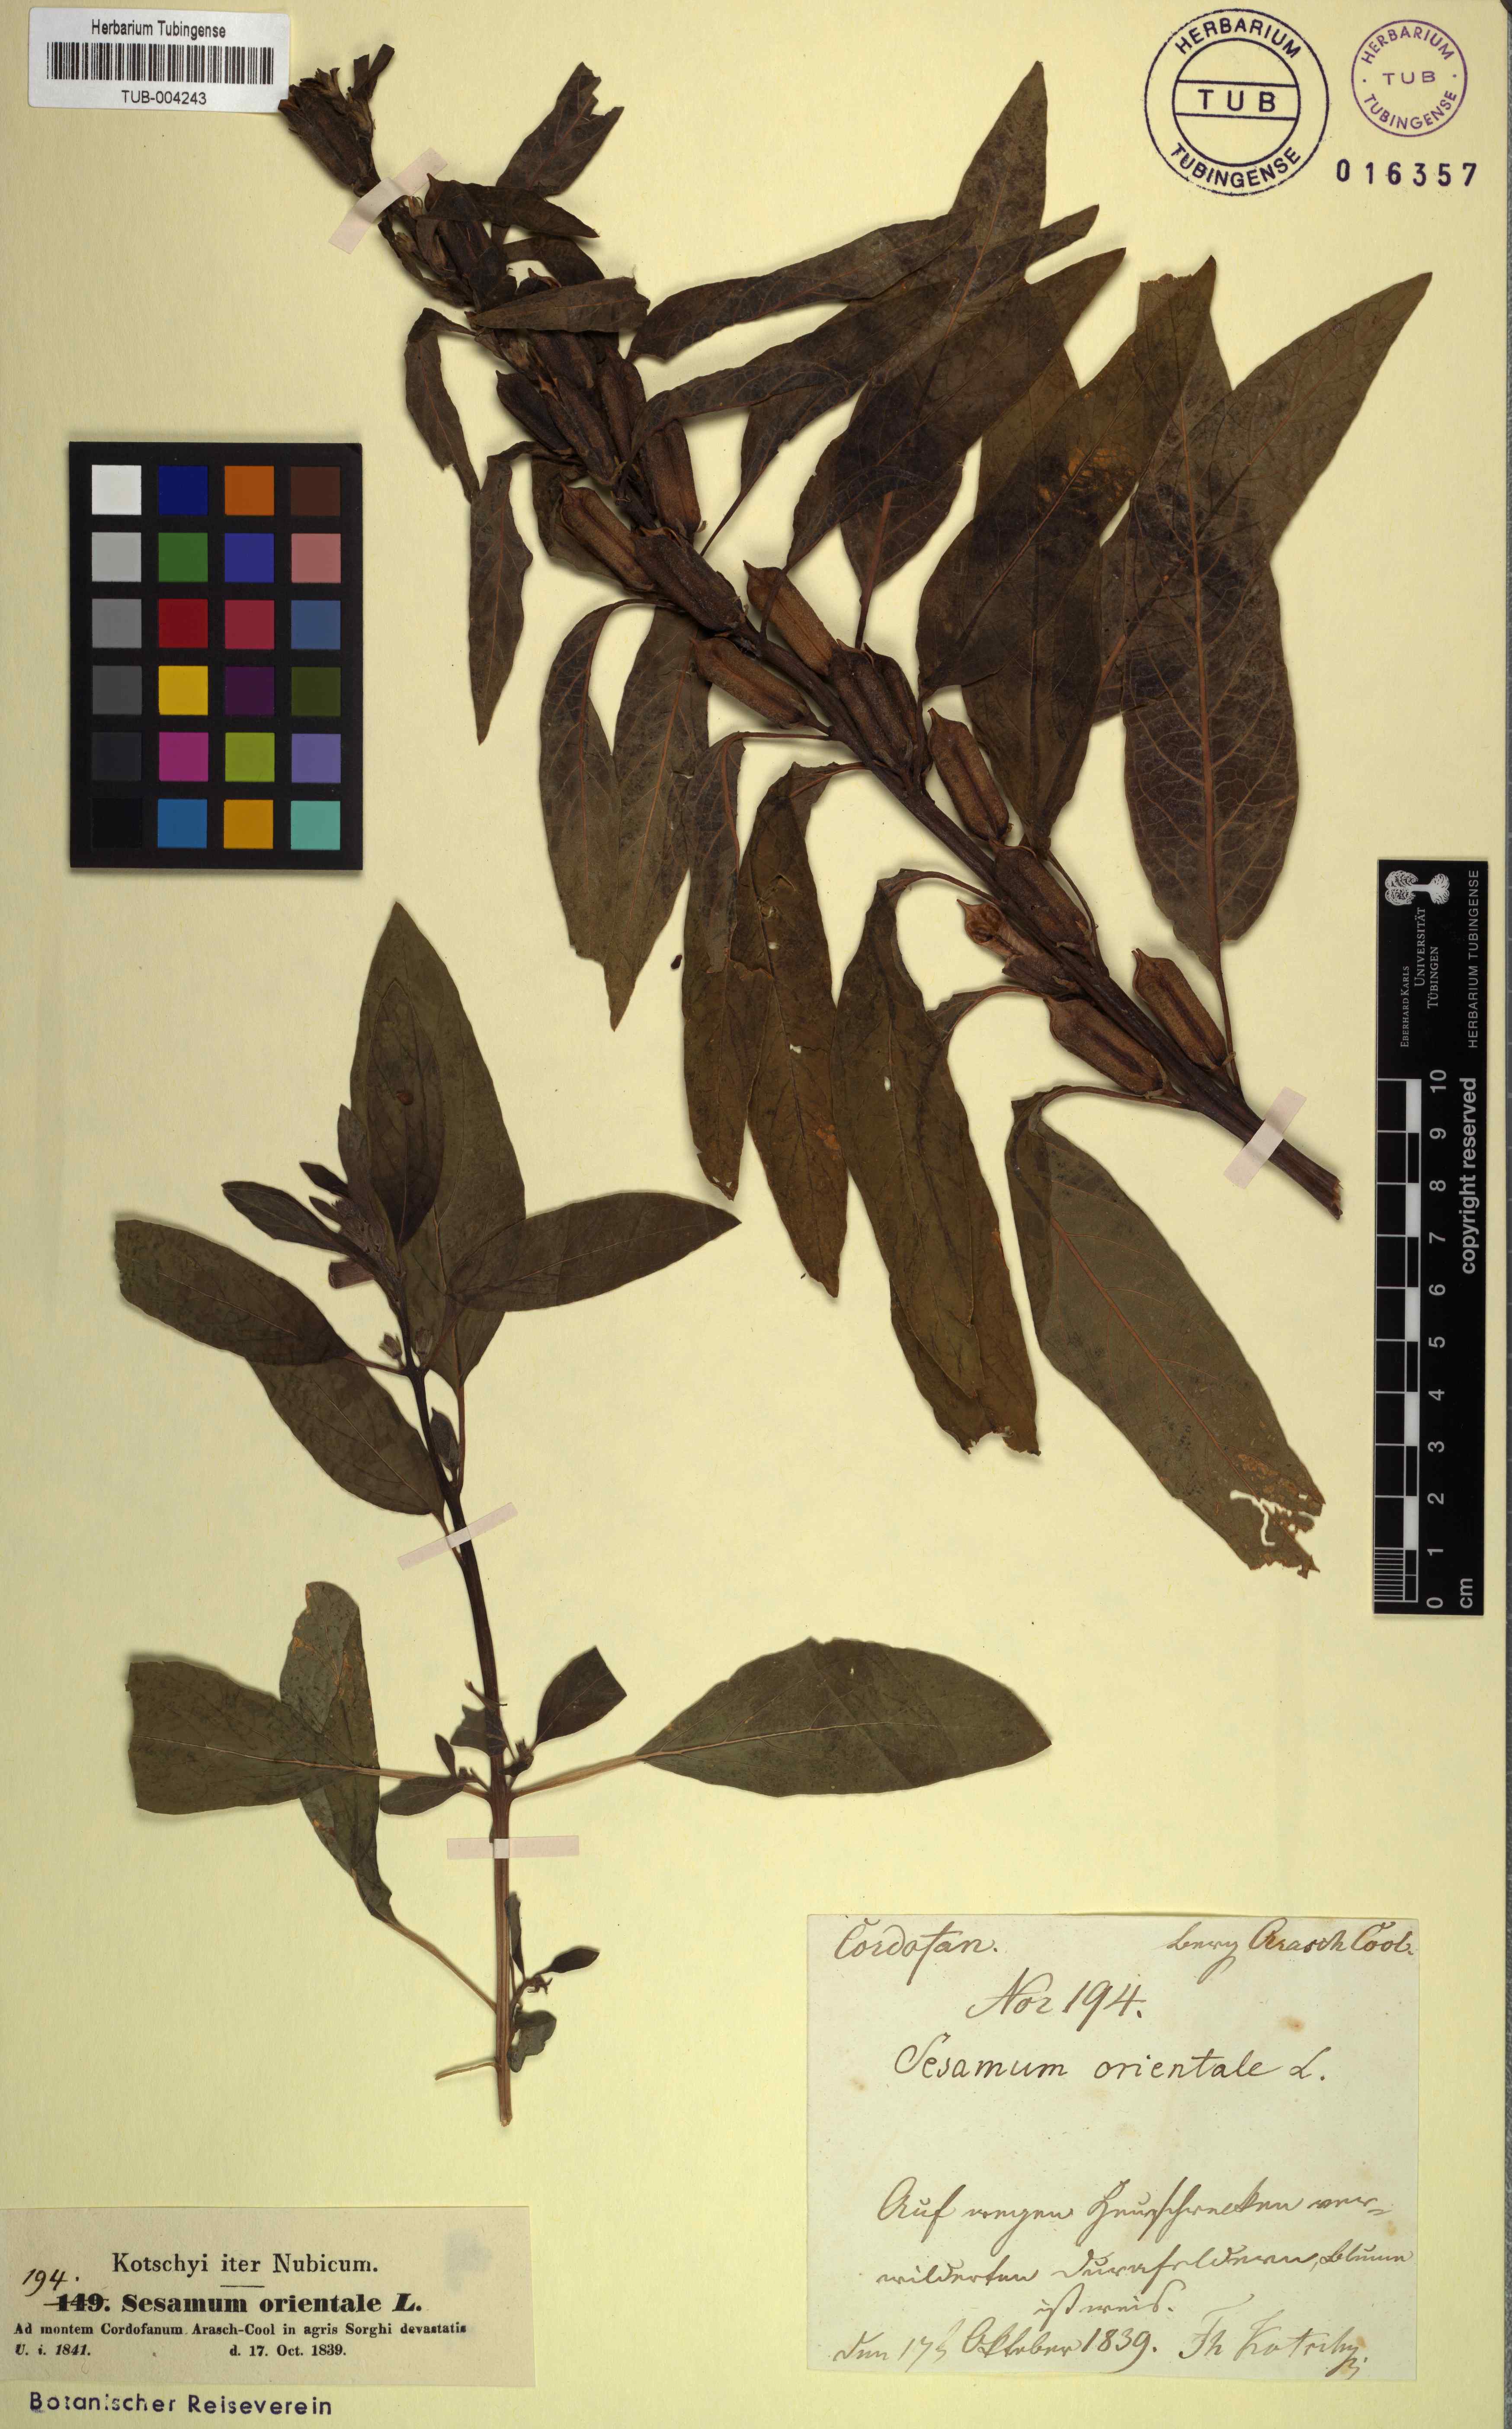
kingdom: Plantae
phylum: Tracheophyta
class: Magnoliopsida
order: Lamiales
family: Pedaliaceae
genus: Sesamum
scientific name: Sesamum indicum
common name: Sesame
